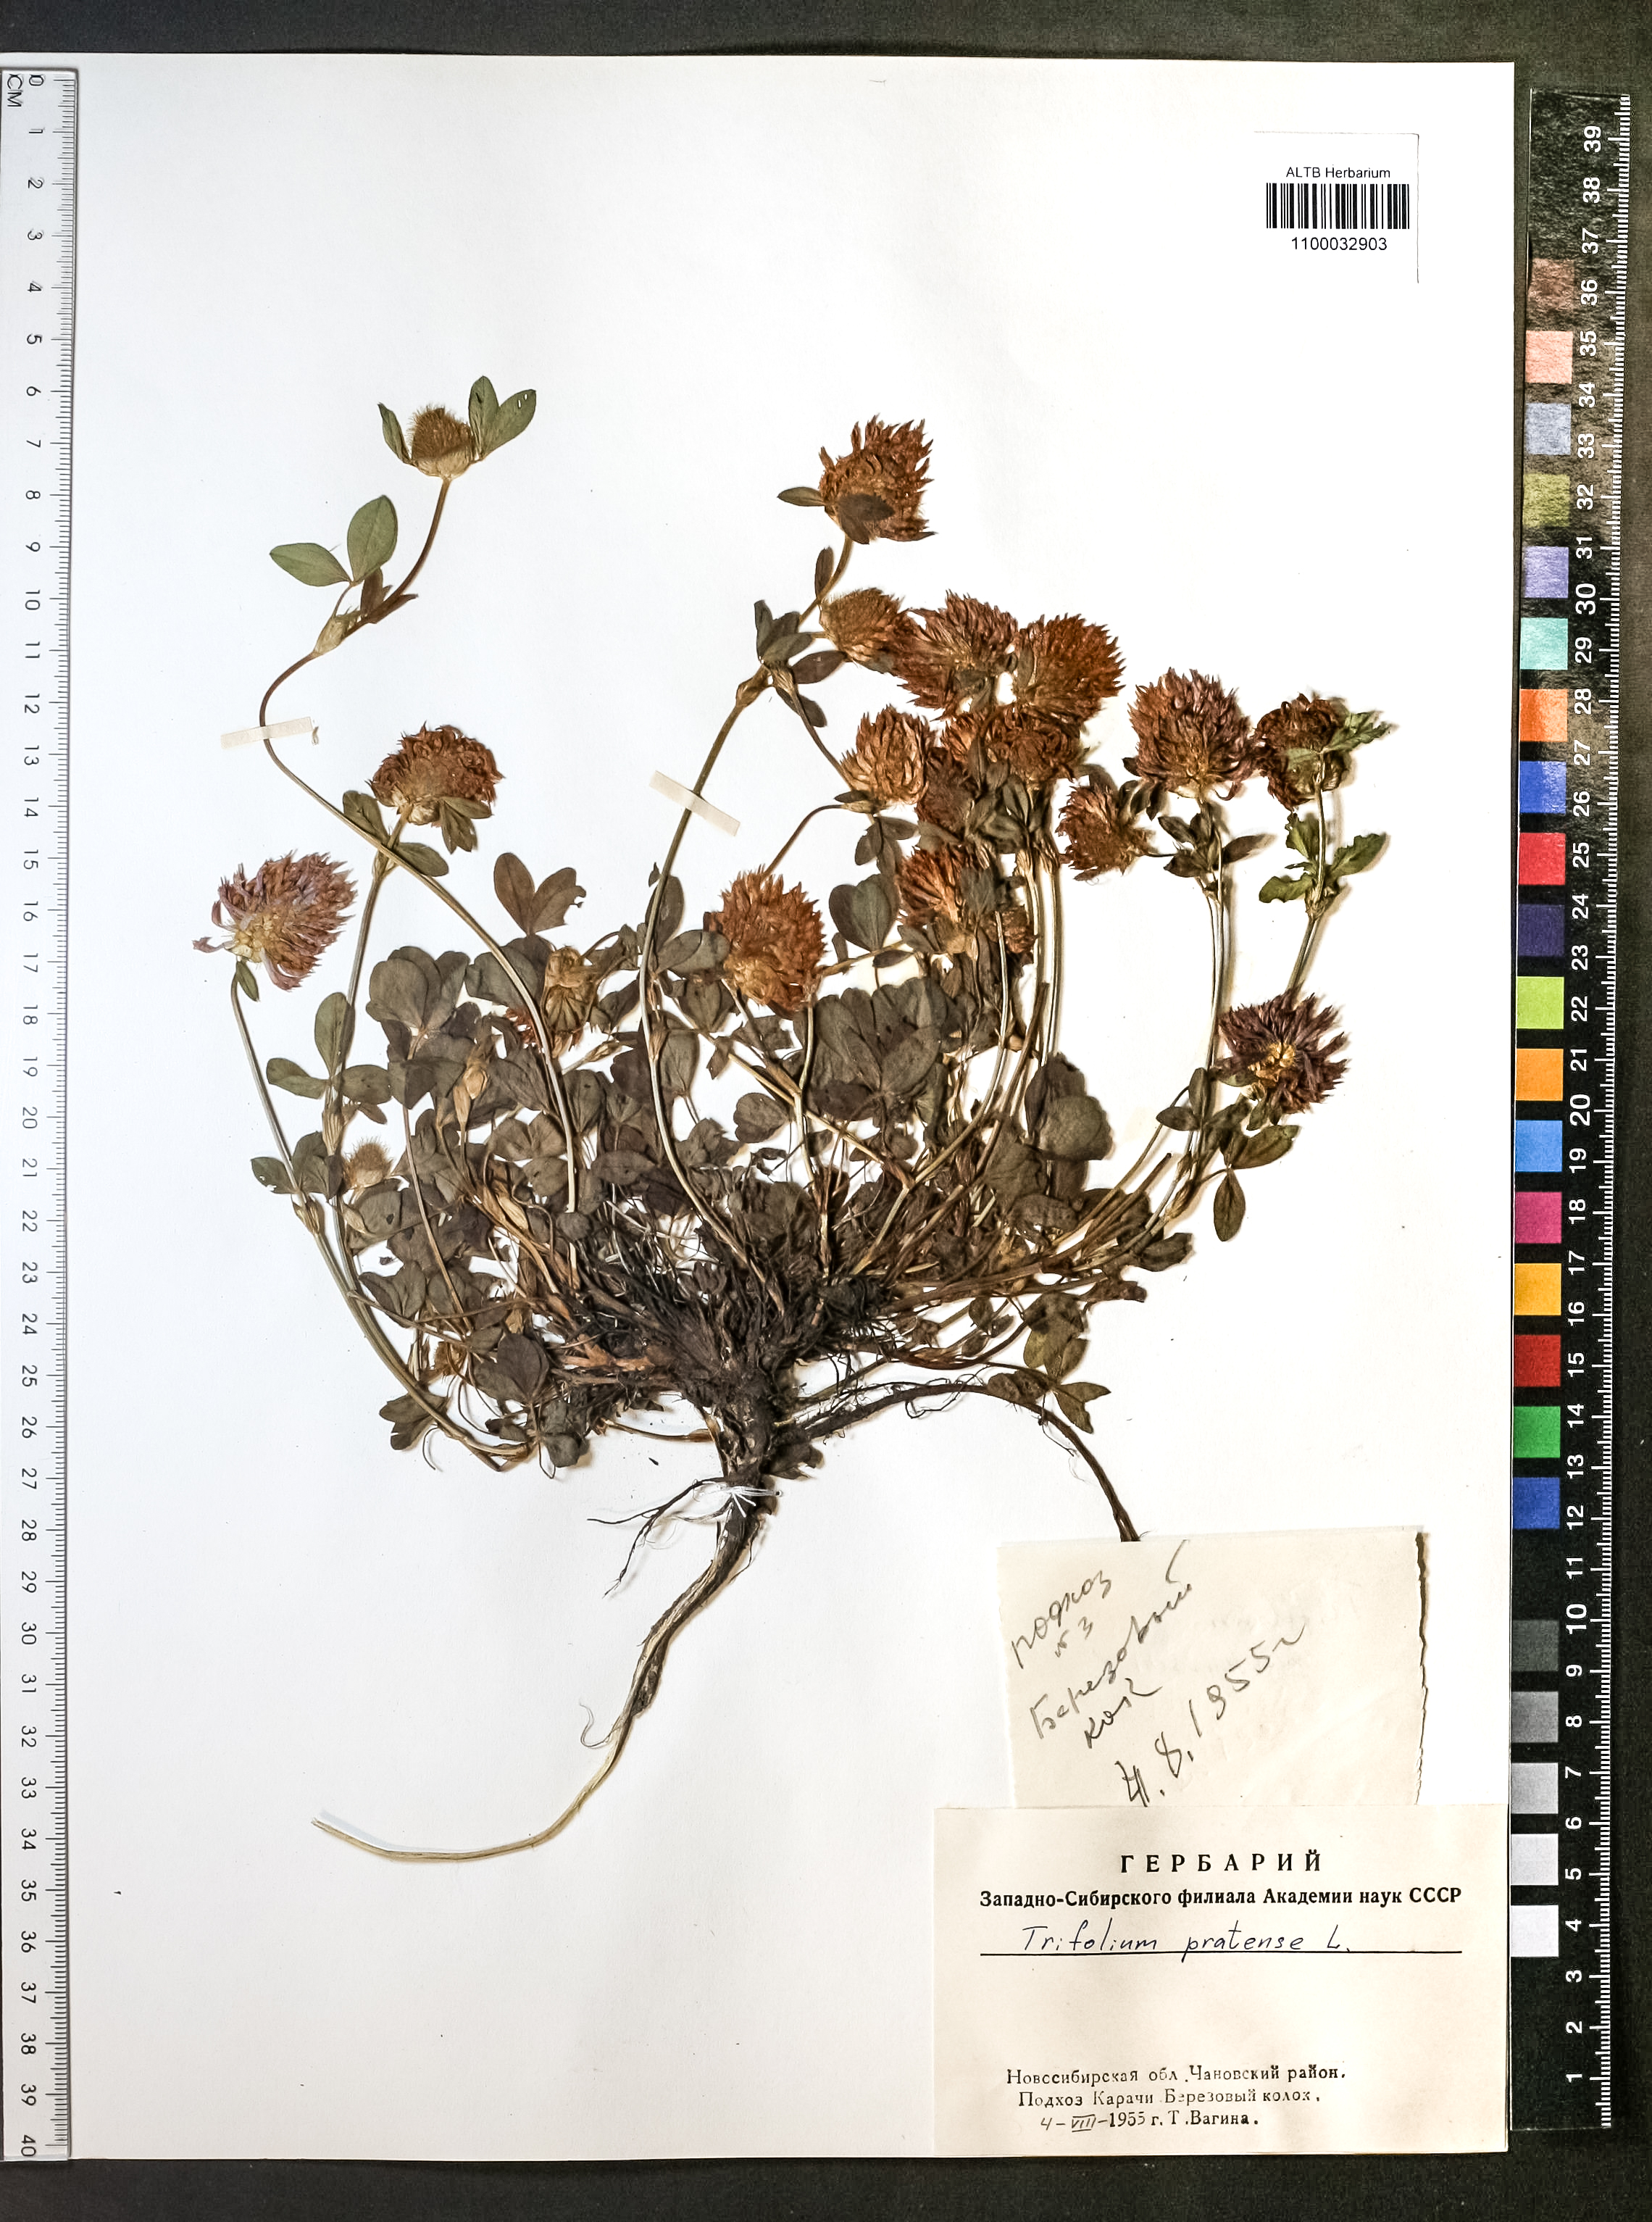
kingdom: Plantae
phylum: Tracheophyta
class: Magnoliopsida
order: Fabales
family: Fabaceae
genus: Trifolium
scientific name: Trifolium pratense
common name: Red clover
